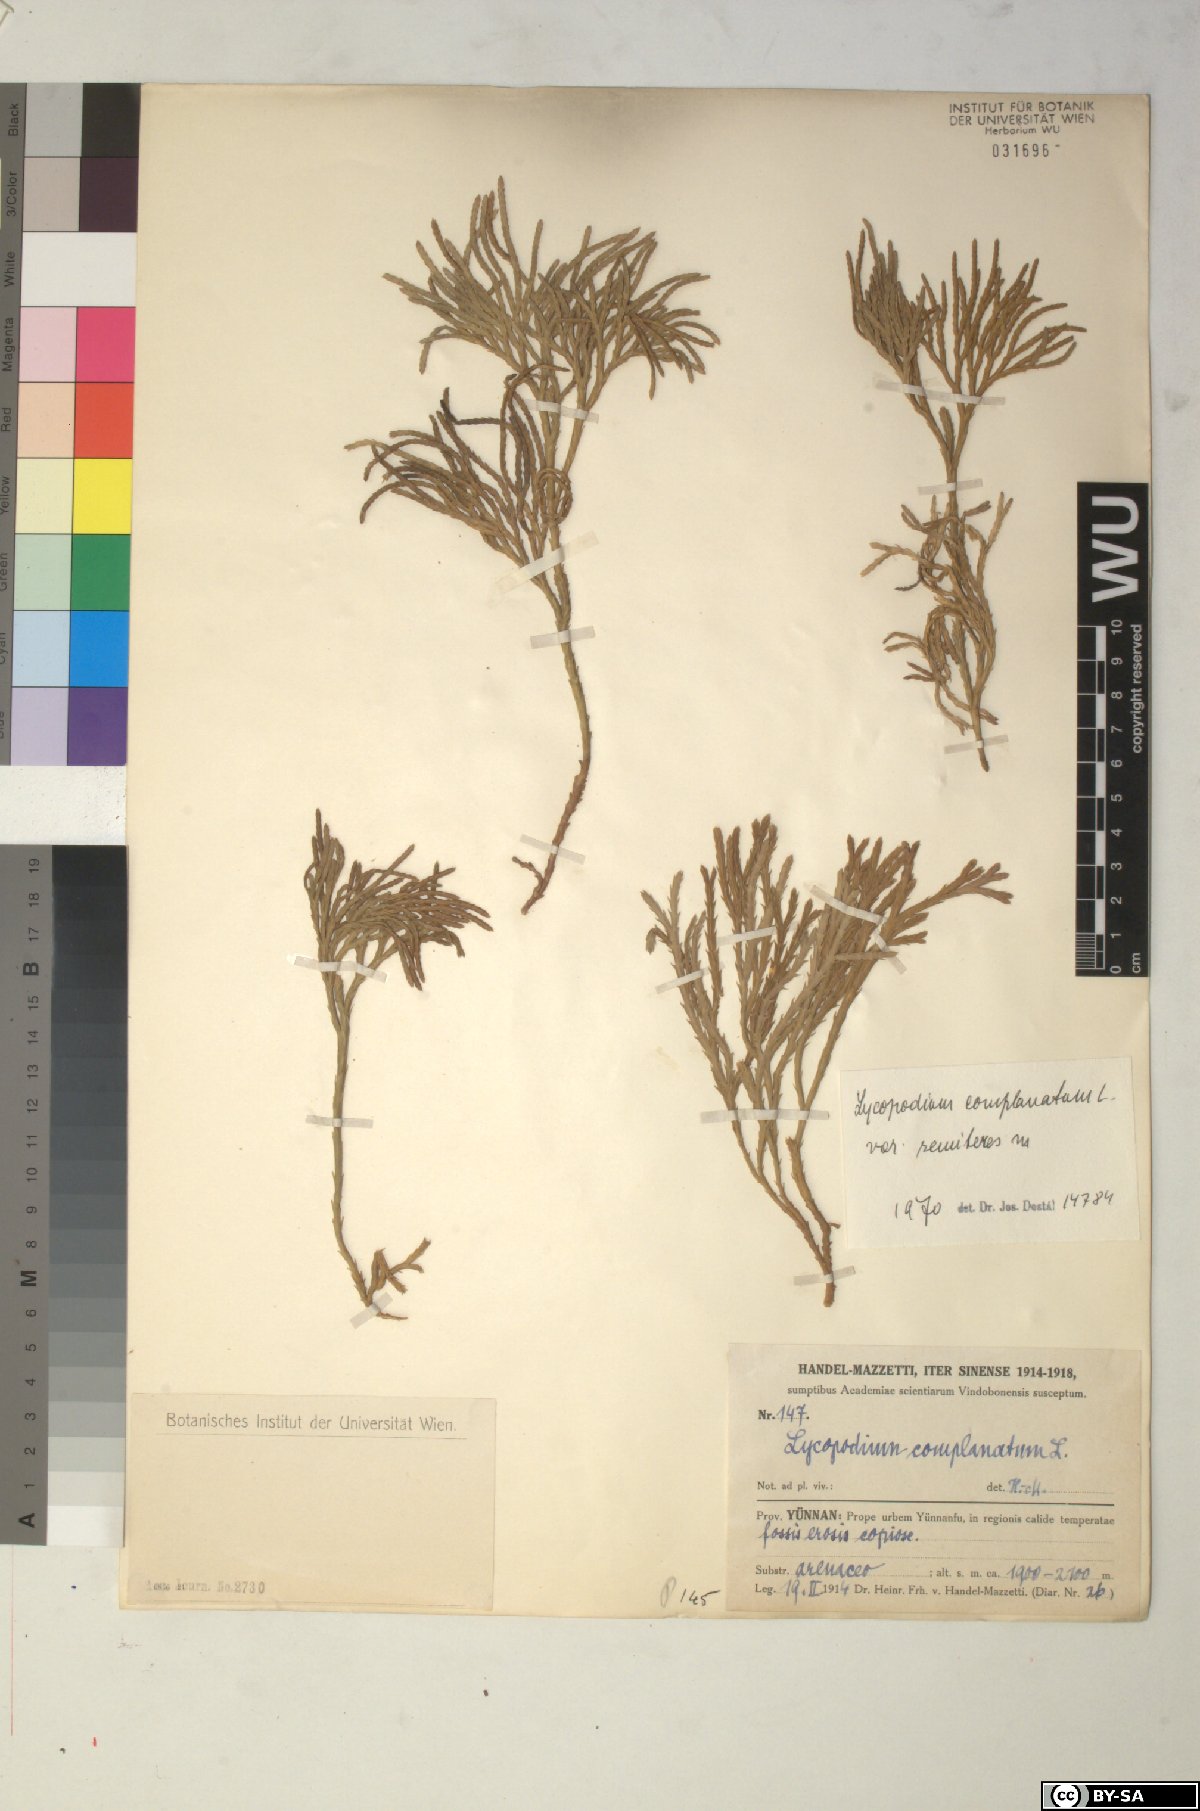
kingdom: Plantae
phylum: Tracheophyta
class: Lycopodiopsida
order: Lycopodiales
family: Lycopodiaceae
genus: Diphasiastrum
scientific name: Diphasiastrum complanatum
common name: Northern running-pine
